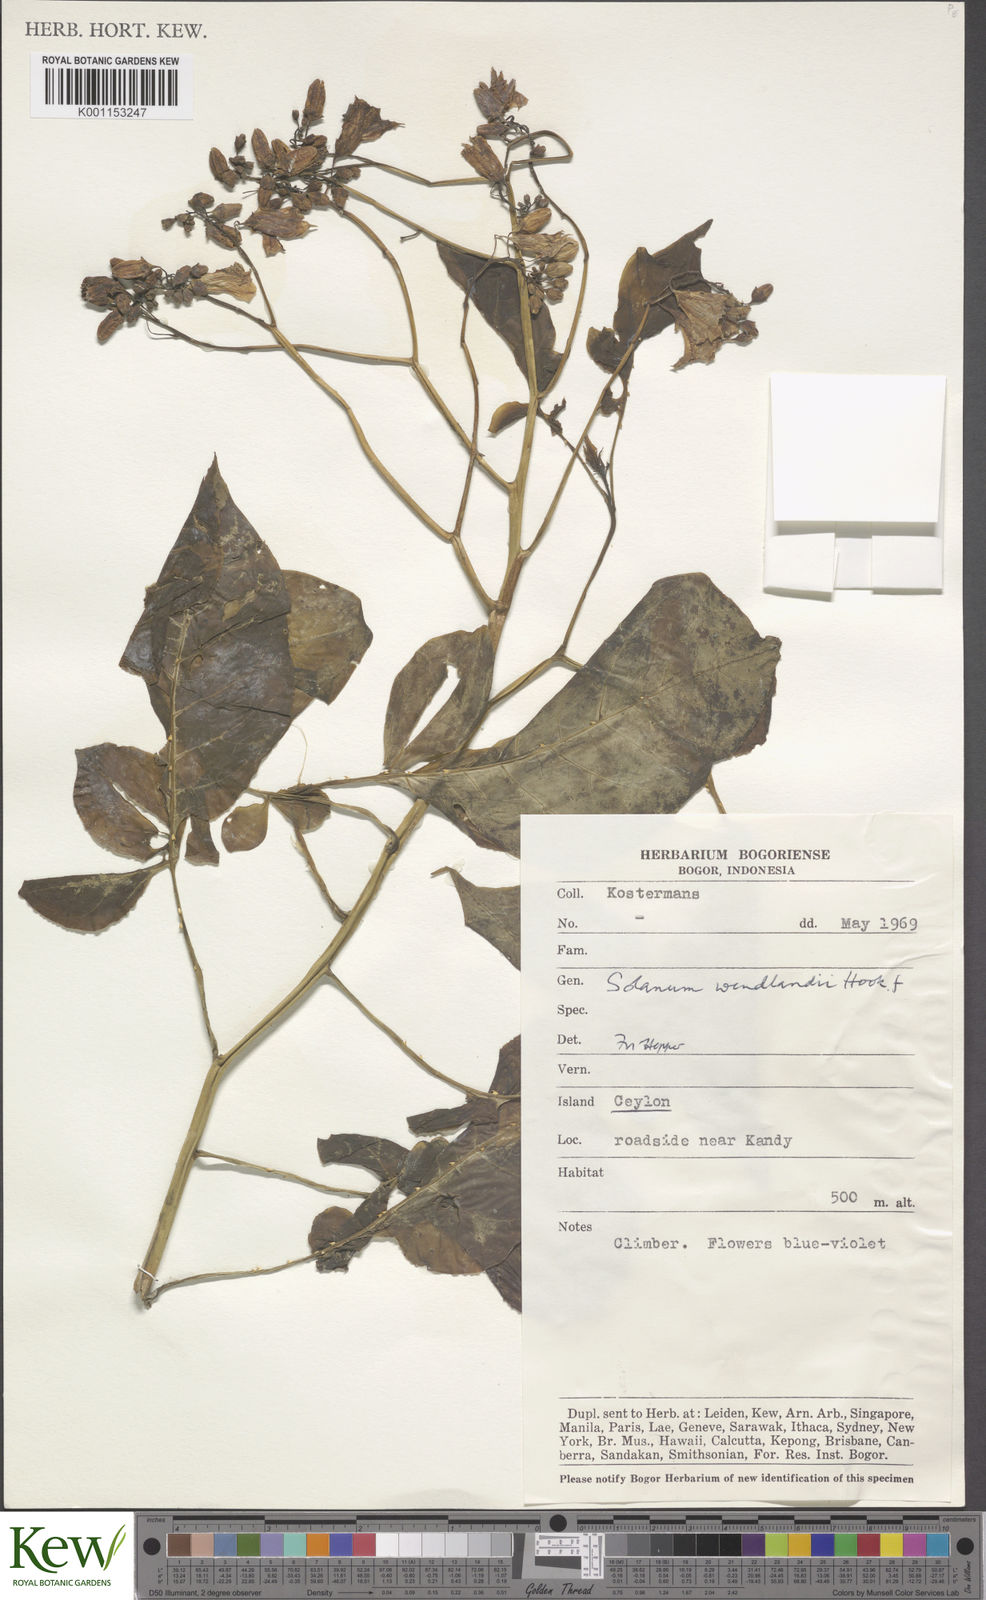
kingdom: Plantae
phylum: Tracheophyta
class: Magnoliopsida
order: Solanales
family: Solanaceae
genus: Solanum
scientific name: Solanum wendlandii
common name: Costa rican nightshade
